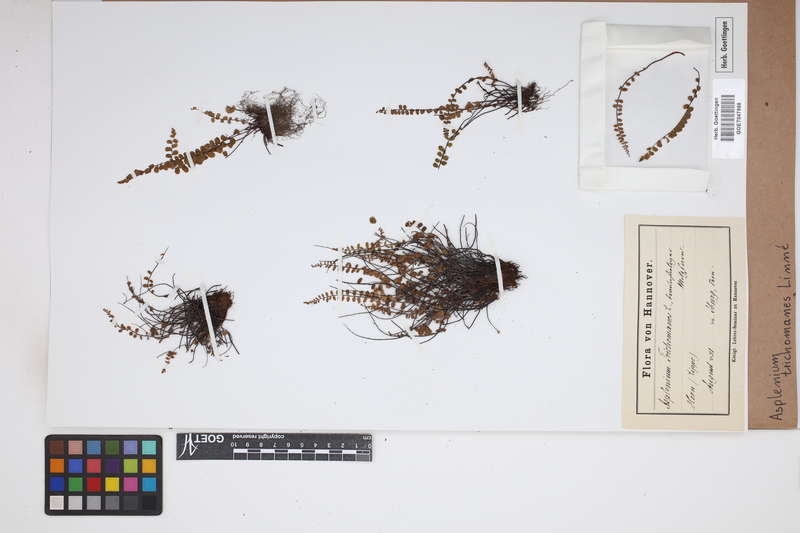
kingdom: Plantae
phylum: Tracheophyta
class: Polypodiopsida
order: Polypodiales
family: Aspleniaceae
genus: Asplenium
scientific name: Asplenium trichomanes
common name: Maidenhair spleenwort
